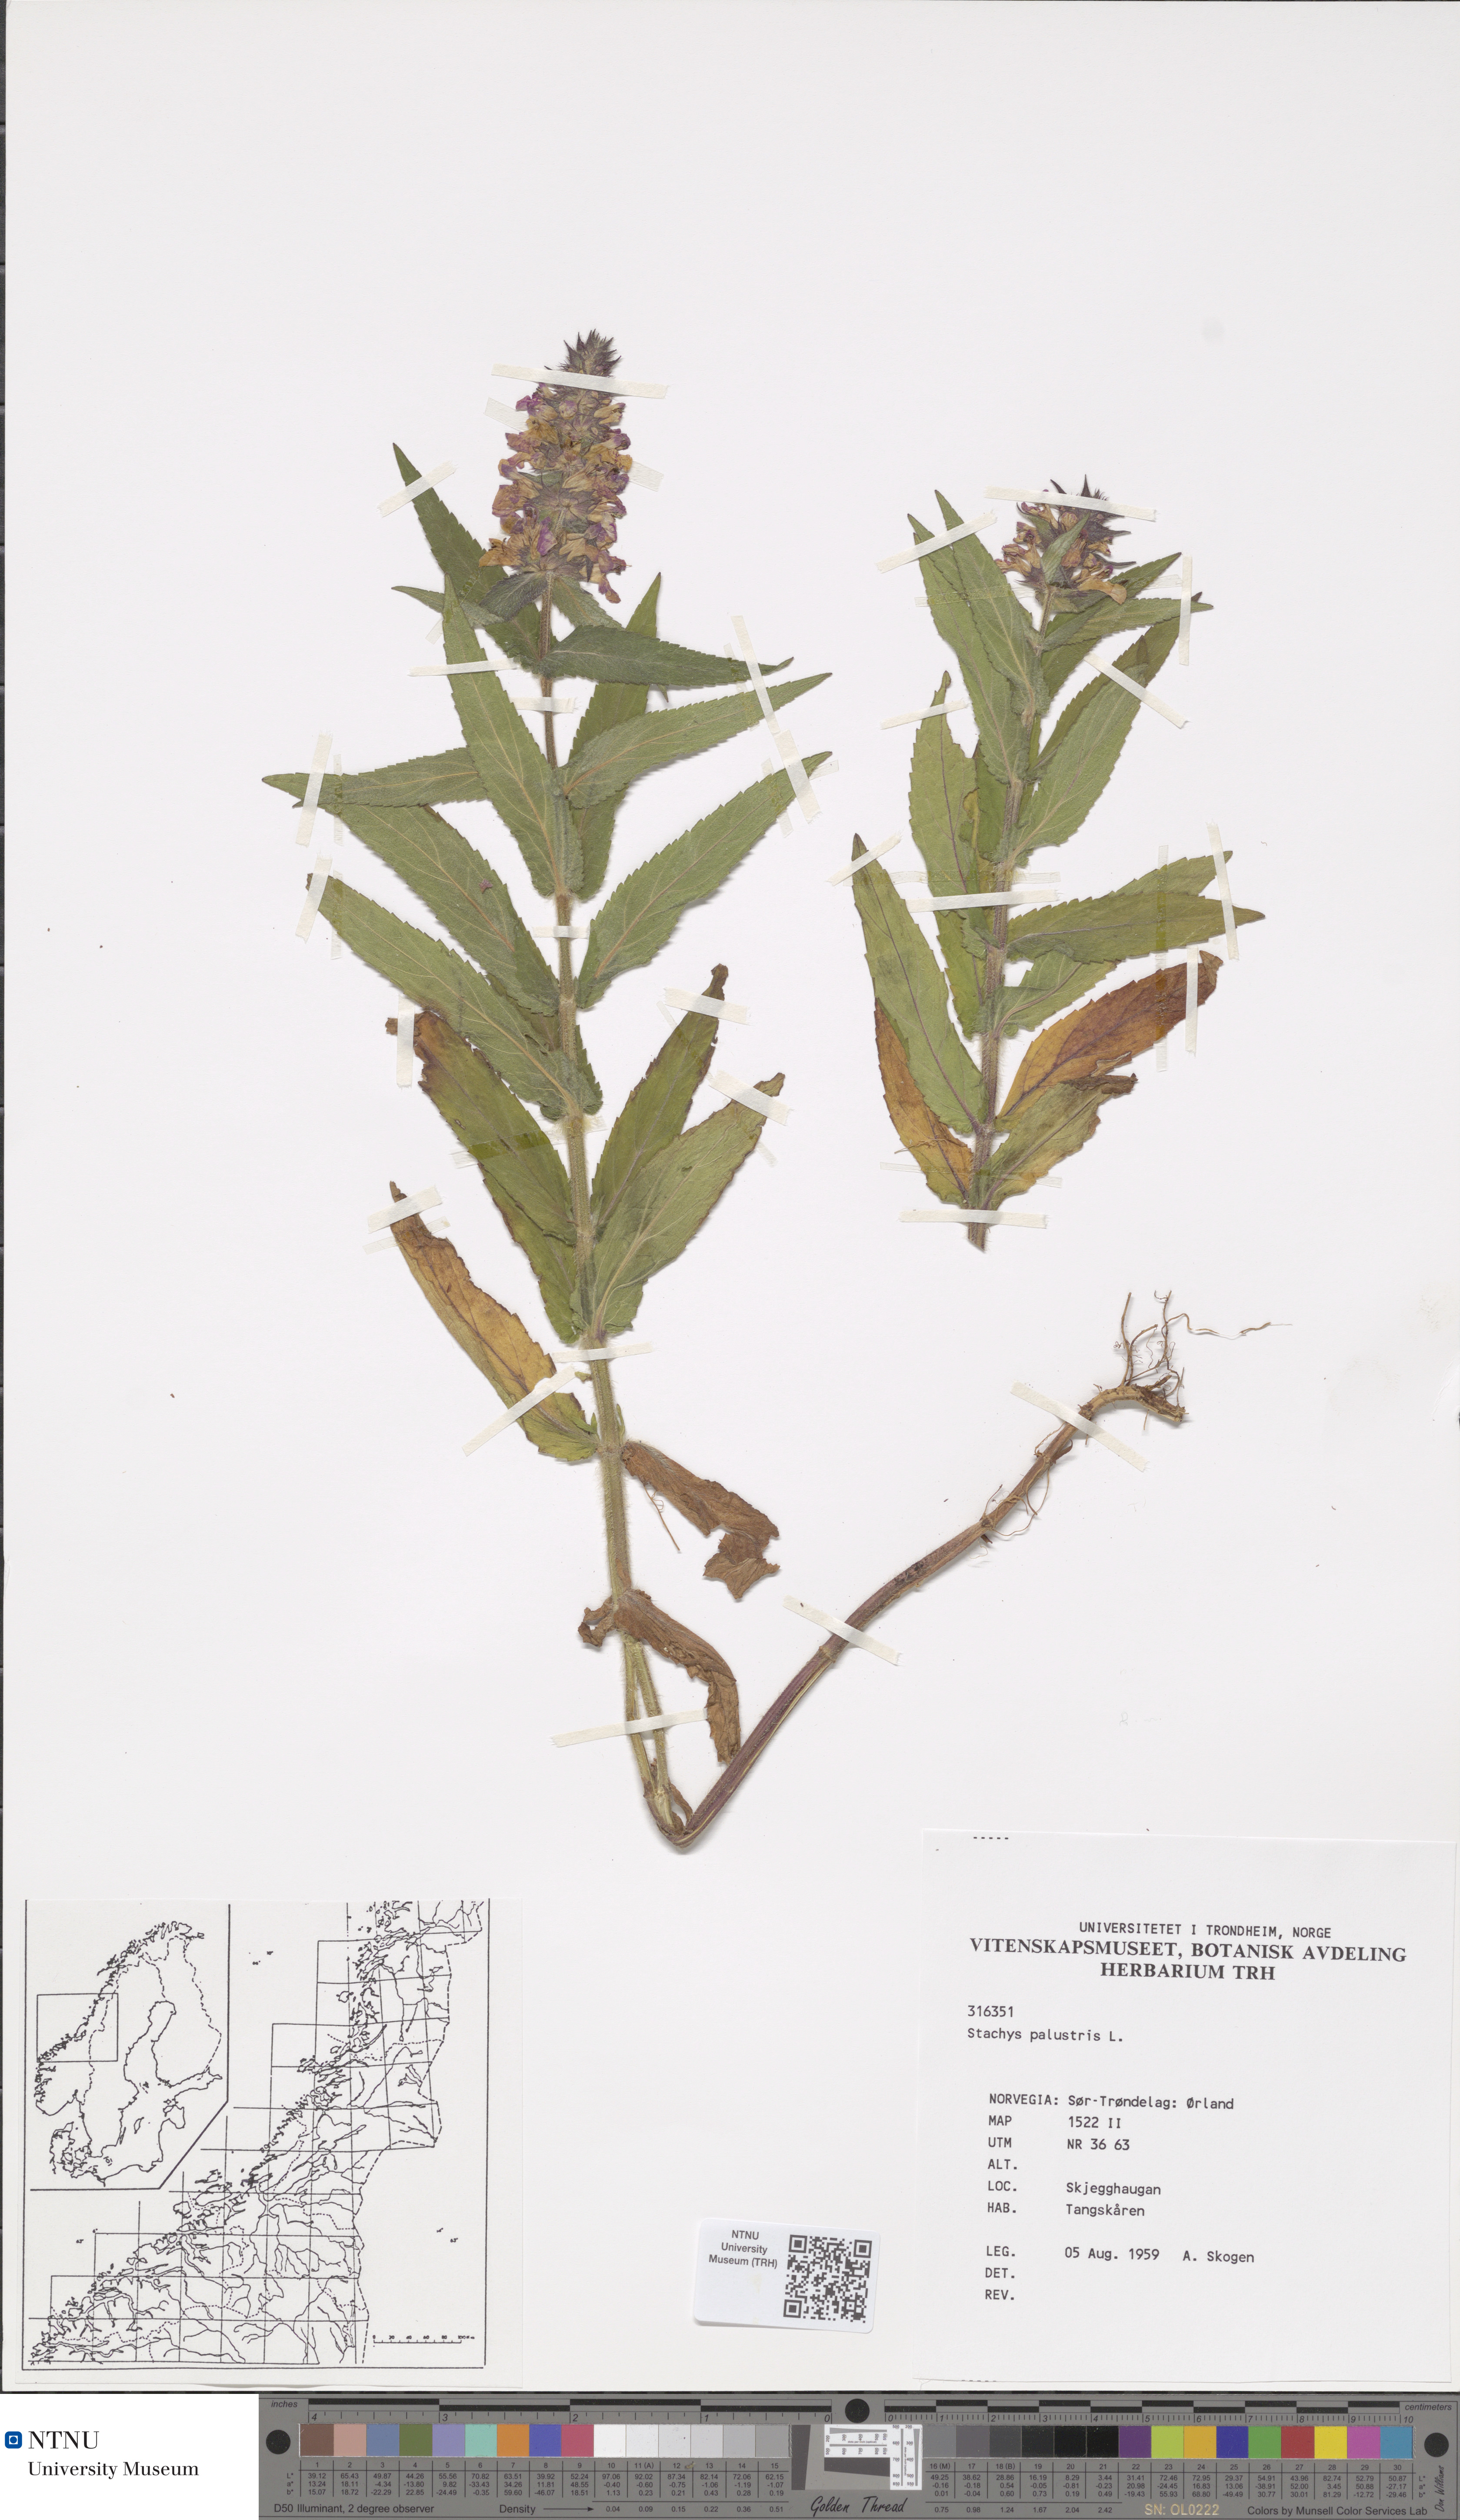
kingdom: Plantae
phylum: Tracheophyta
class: Magnoliopsida
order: Lamiales
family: Lamiaceae
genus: Stachys
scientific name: Stachys palustris
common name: Marsh woundwort
